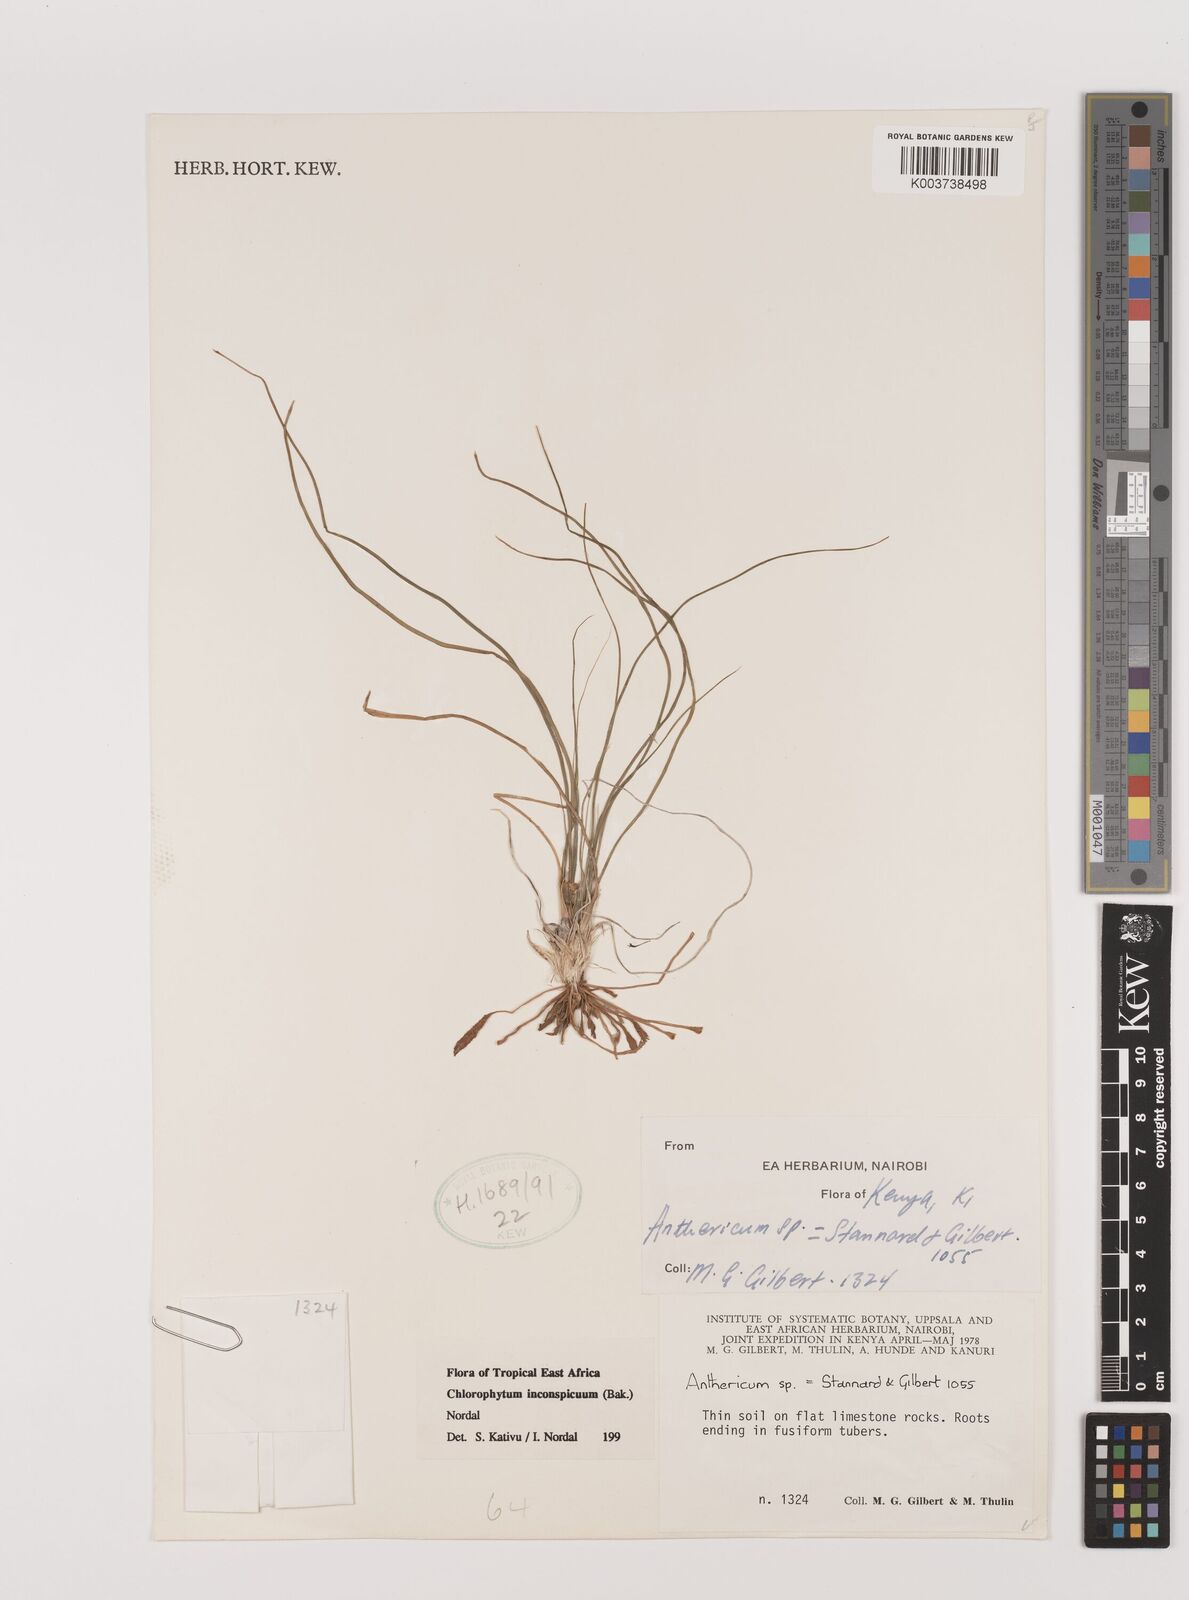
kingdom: Plantae
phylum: Tracheophyta
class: Liliopsida
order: Asparagales
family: Asparagaceae
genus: Chlorophytum
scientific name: Chlorophytum inconspicuum
